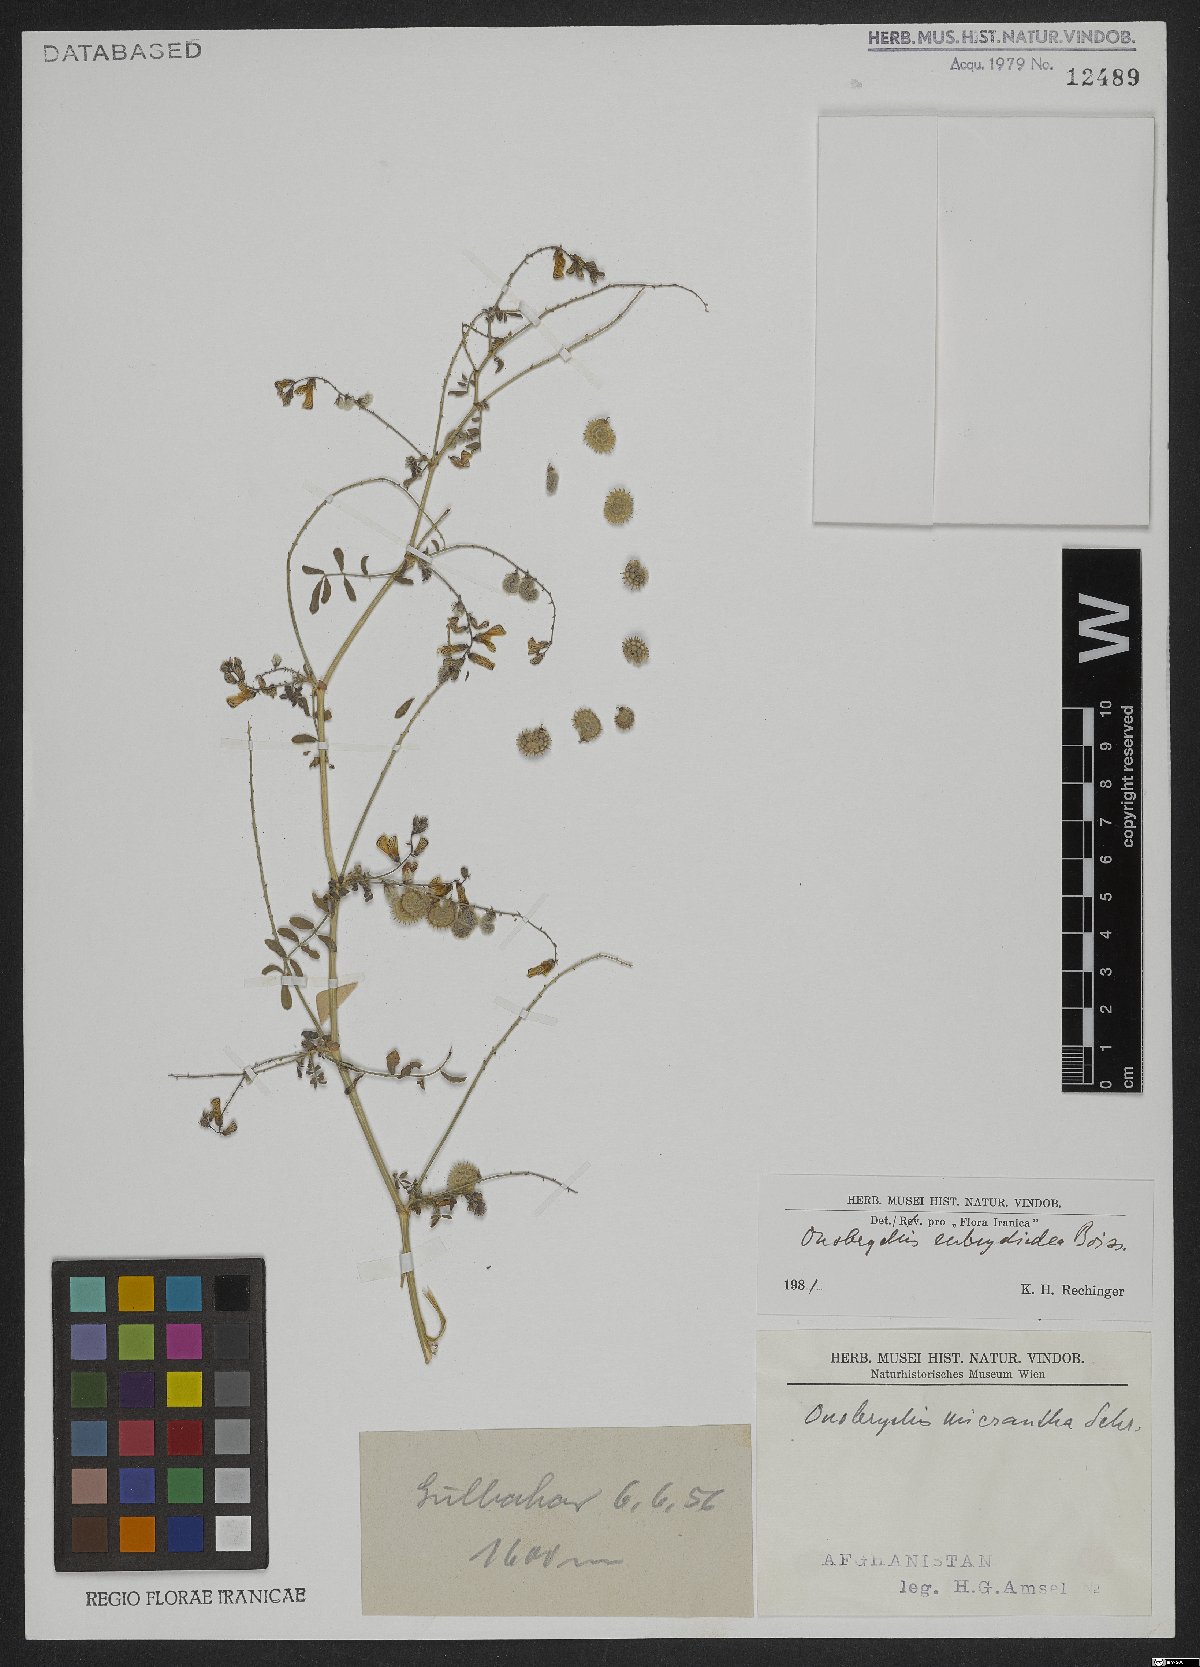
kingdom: Plantae
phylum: Tracheophyta
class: Magnoliopsida
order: Fabales
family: Fabaceae
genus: Onobrychis
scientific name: Onobrychis eubrychidea
